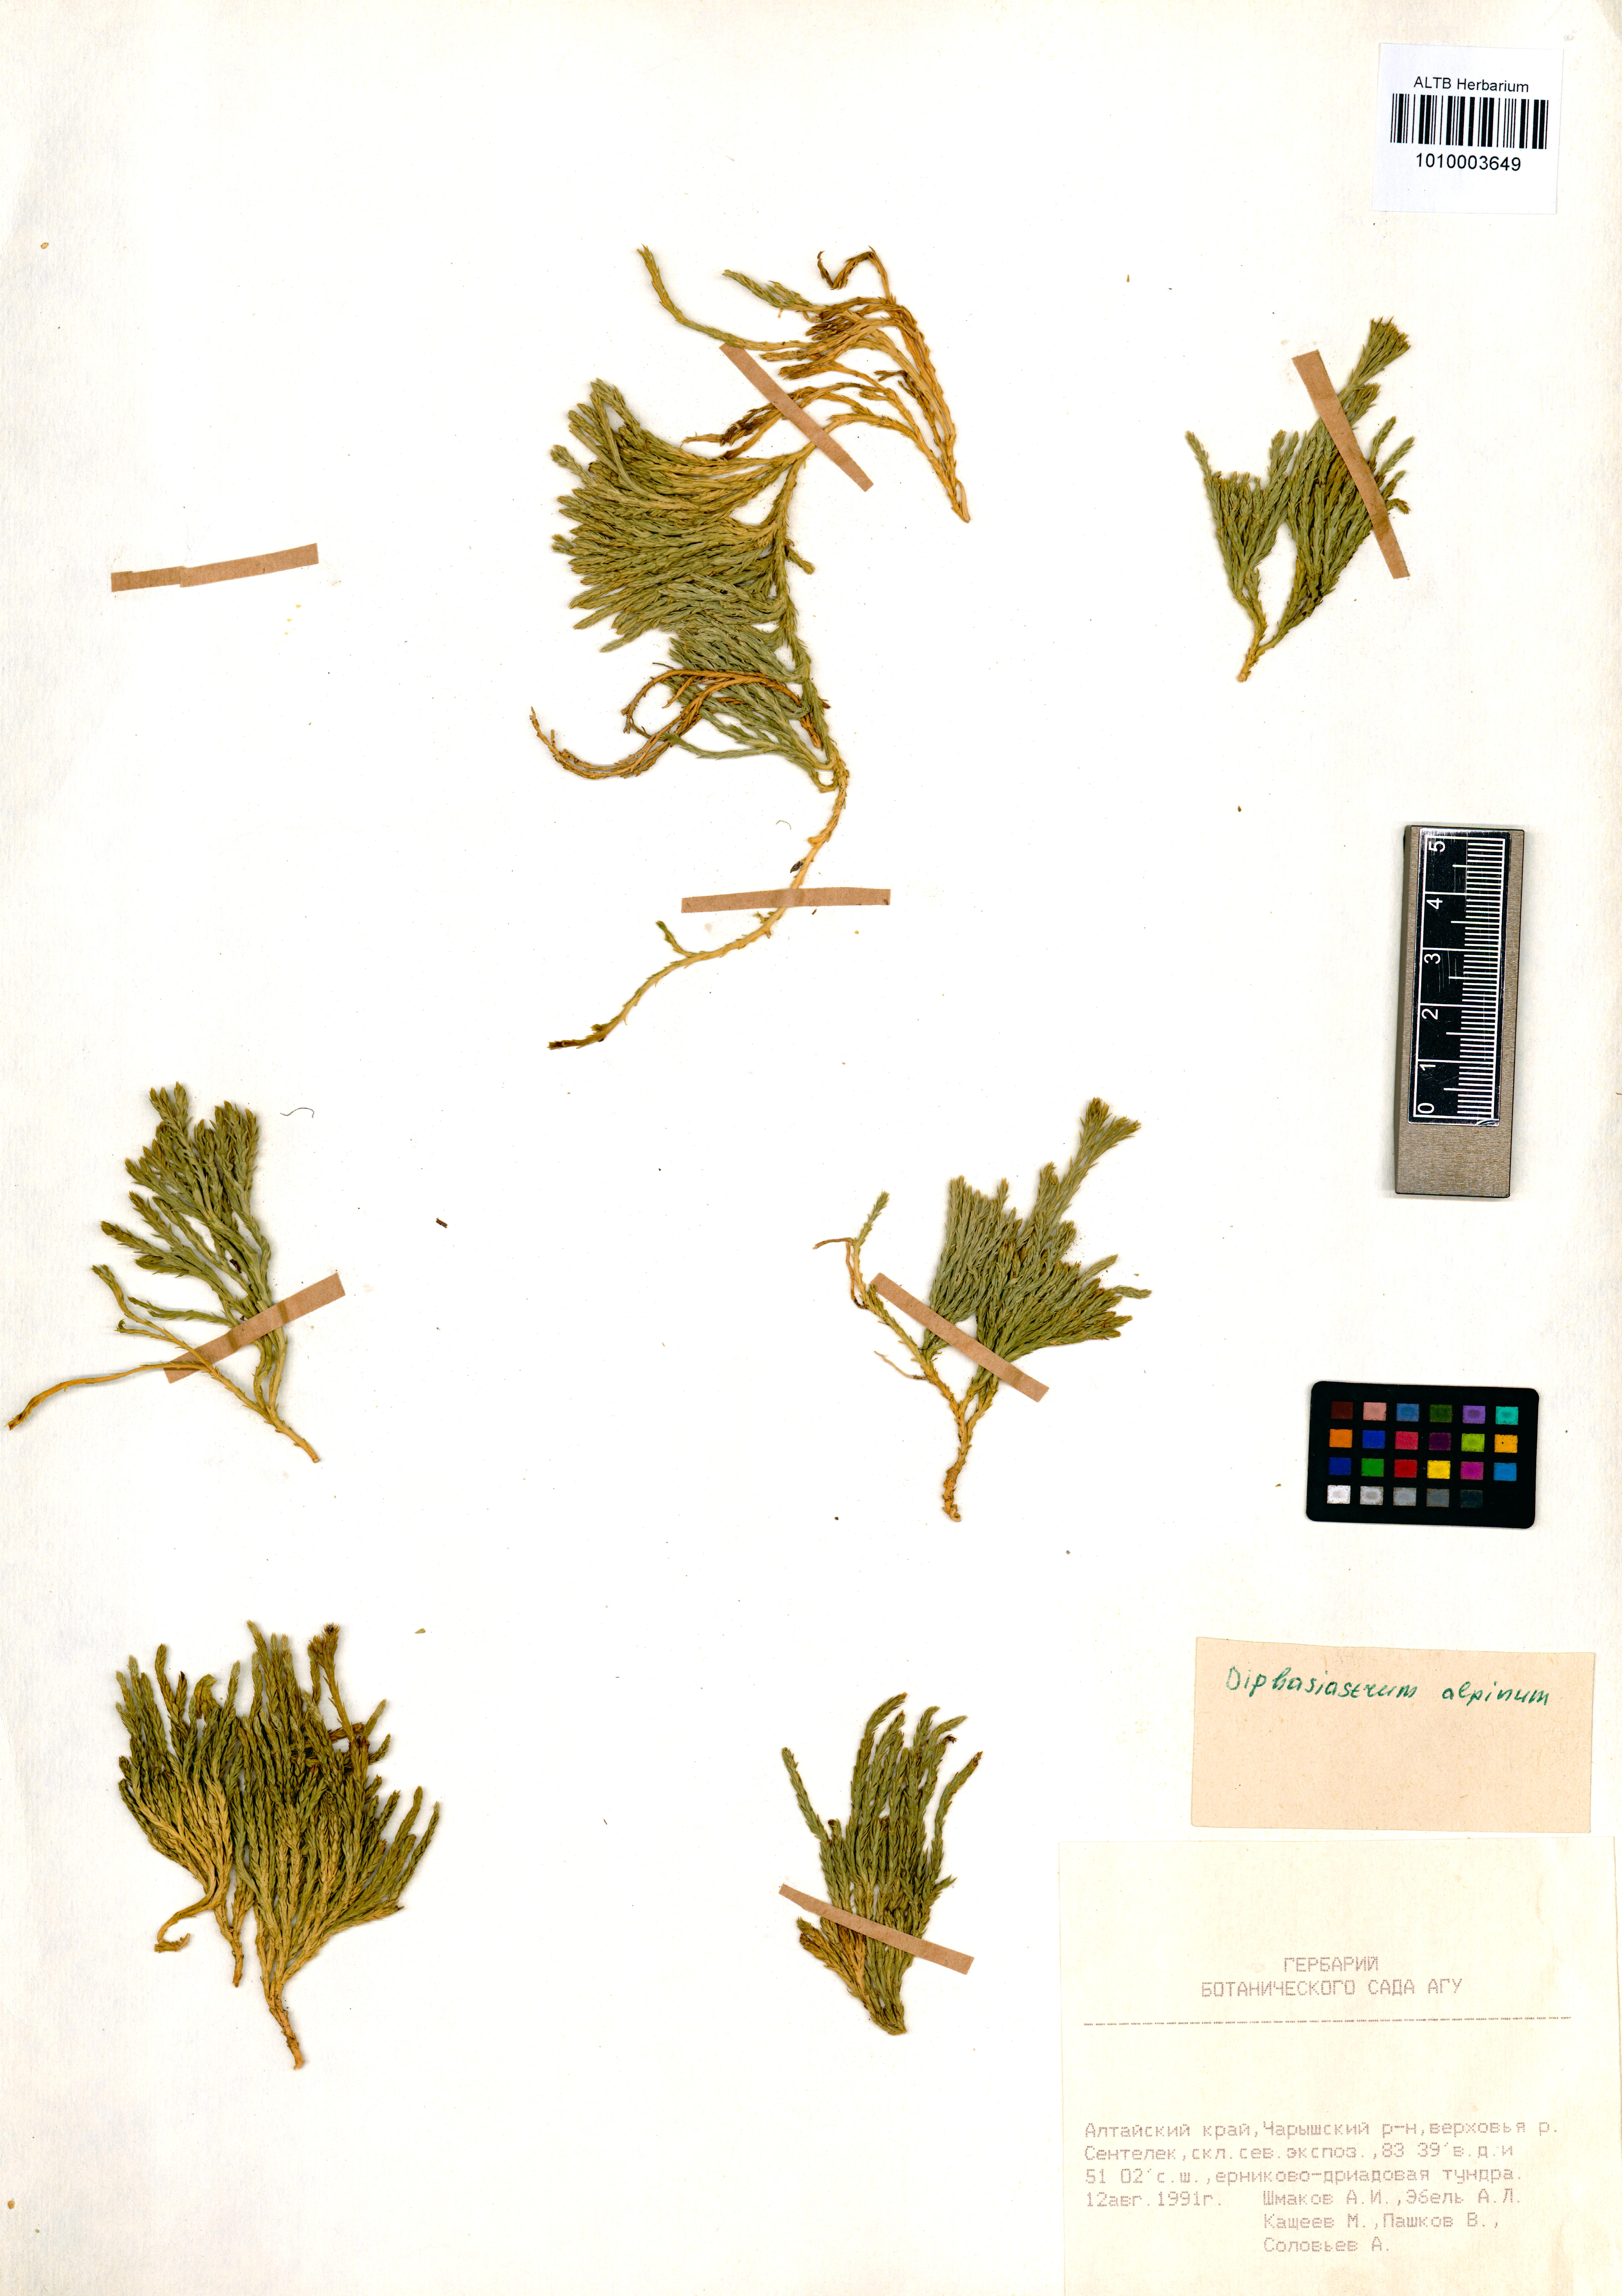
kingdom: Plantae
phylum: Tracheophyta
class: Lycopodiopsida
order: Lycopodiales
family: Lycopodiaceae
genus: Diphasiastrum
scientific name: Diphasiastrum alpinum
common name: Alpine clubmoss
